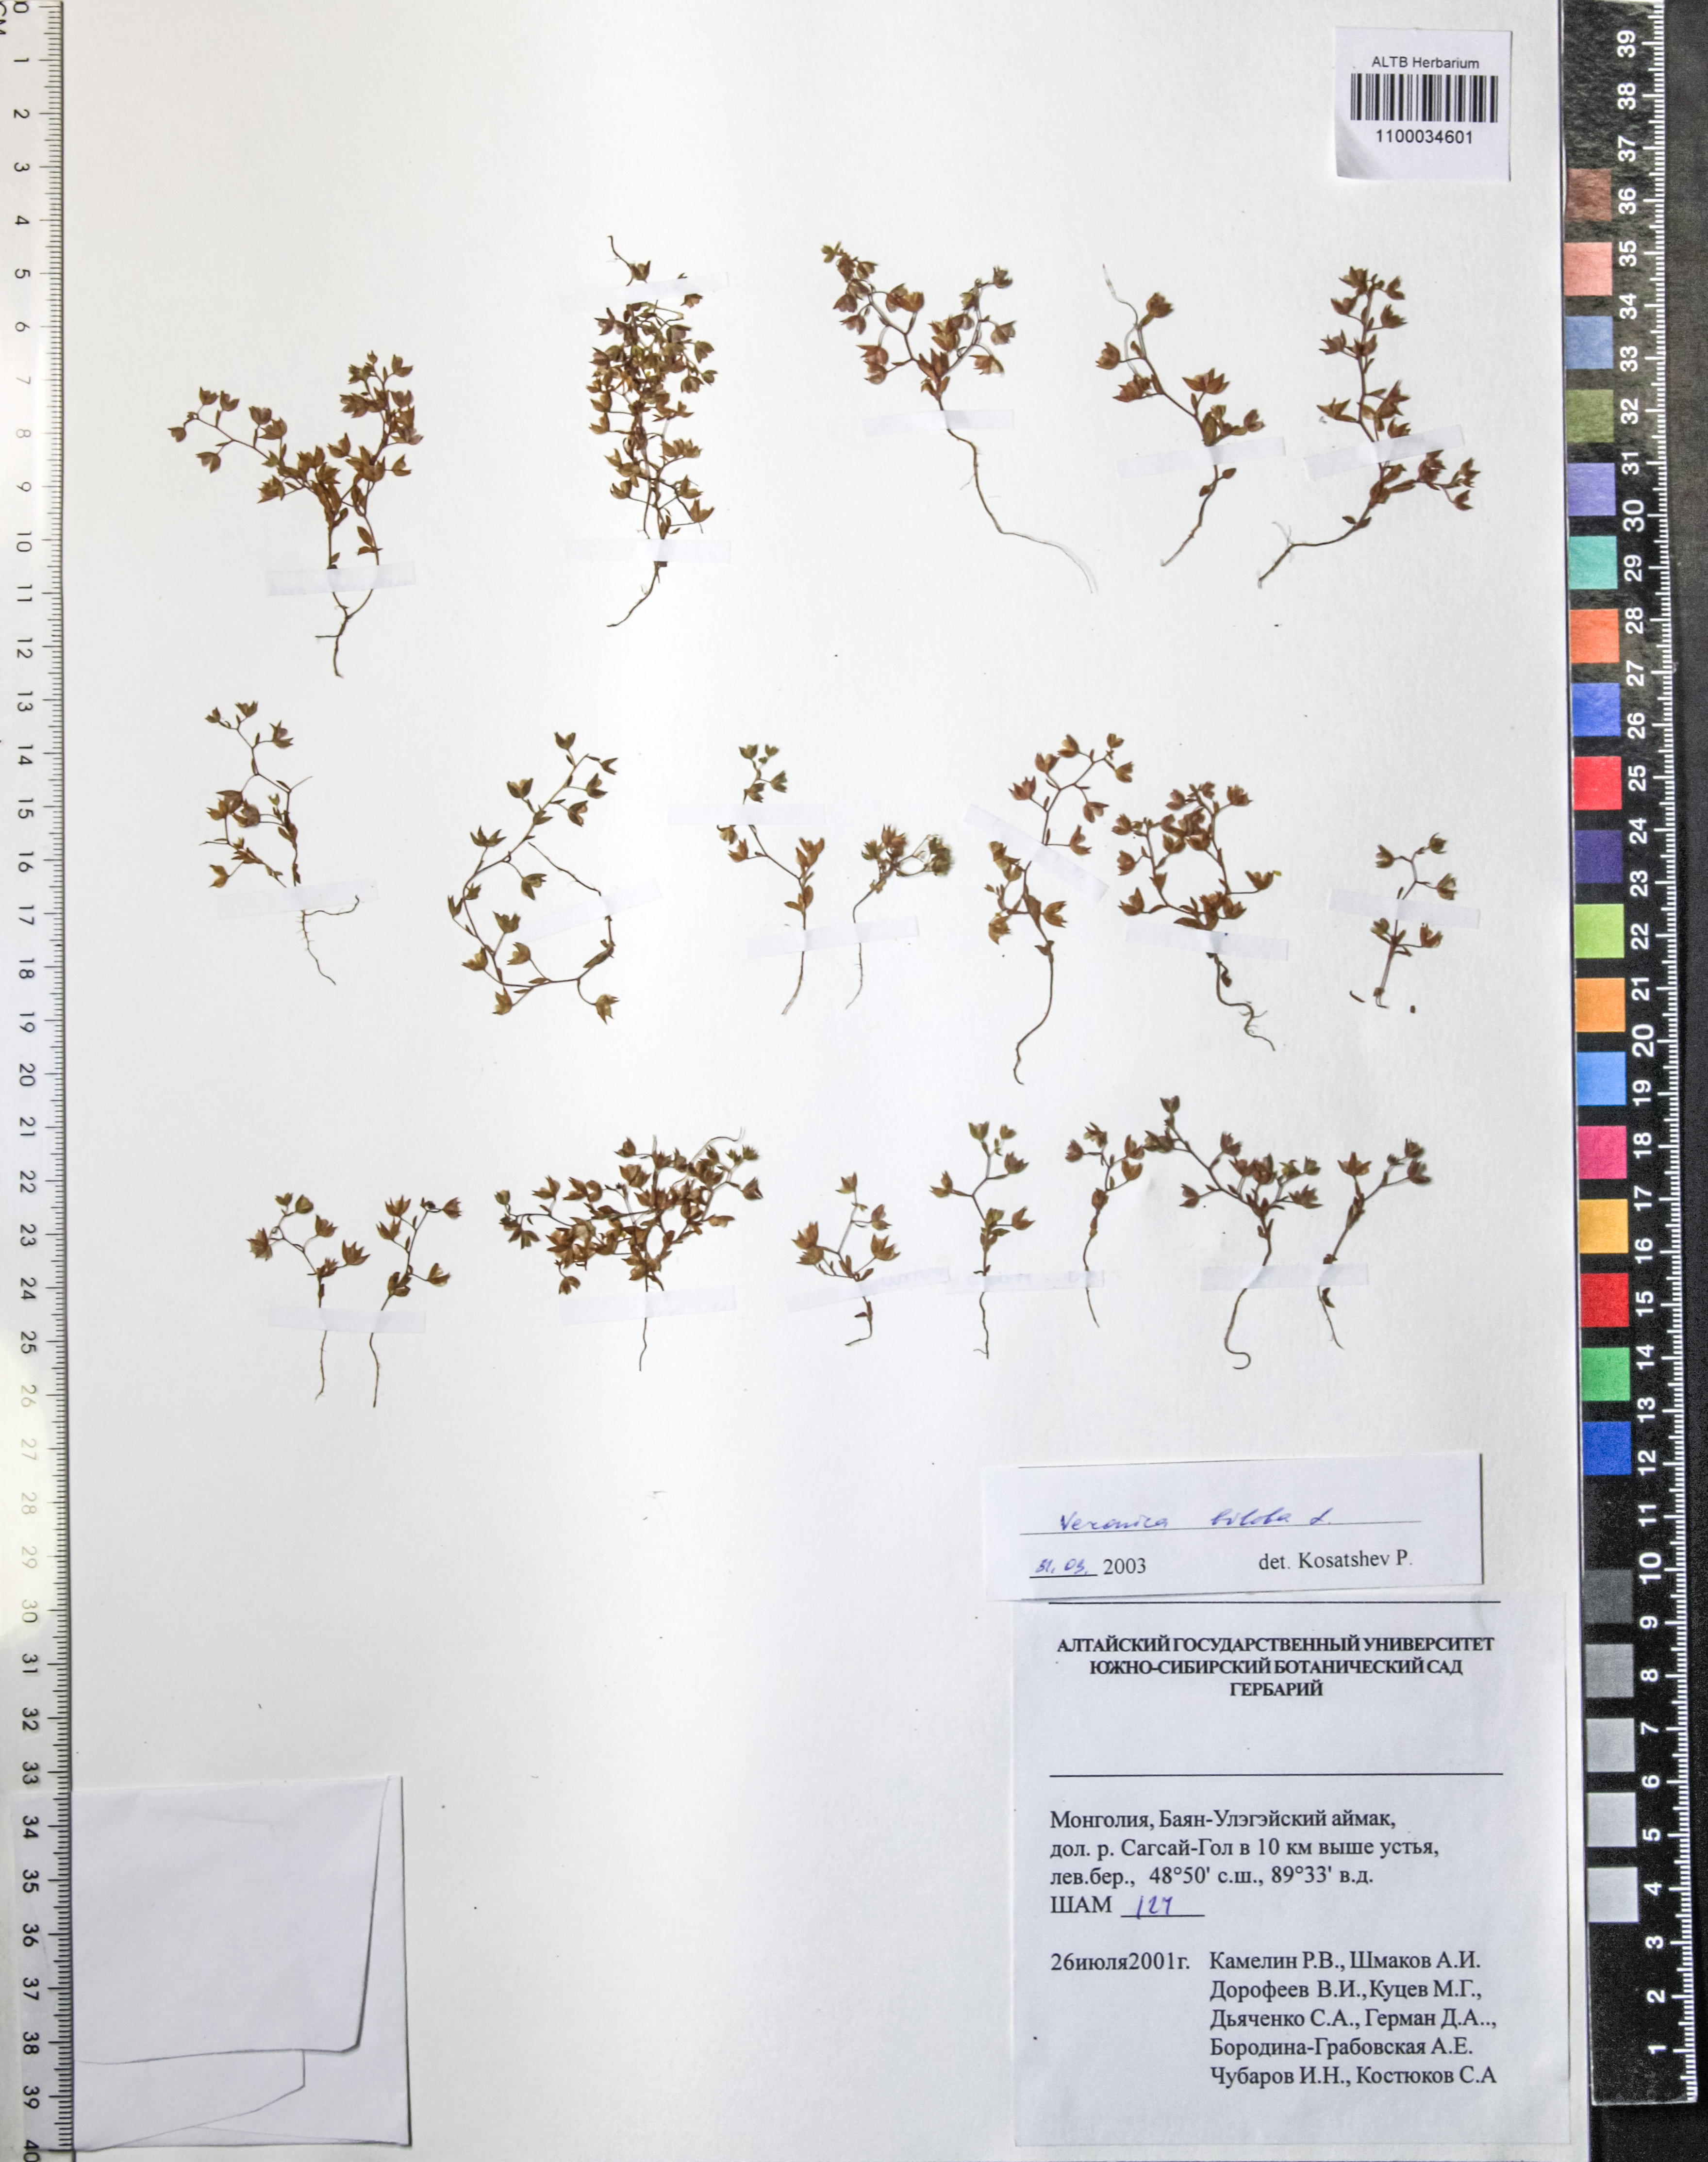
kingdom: Plantae
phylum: Tracheophyta
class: Magnoliopsida
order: Lamiales
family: Plantaginaceae
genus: Veronica
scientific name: Veronica biloba
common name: Twolobe speedwell
